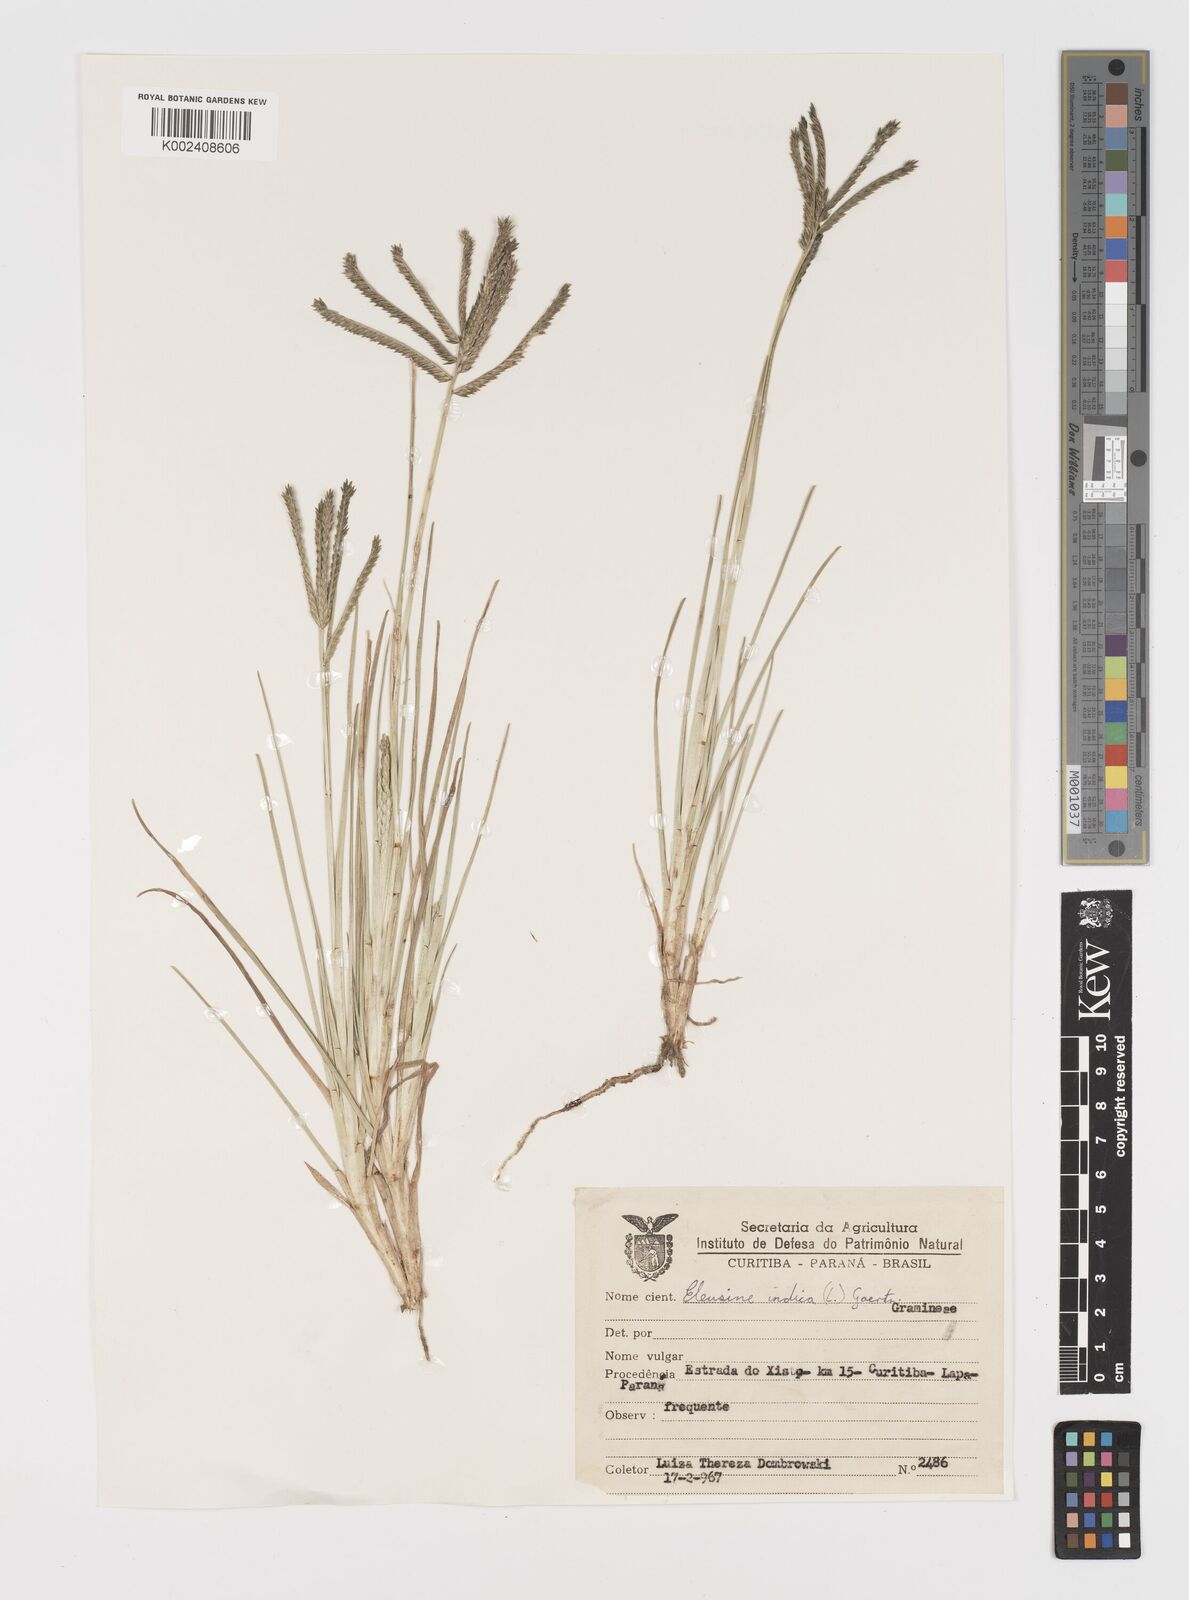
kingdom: Plantae
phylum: Tracheophyta
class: Liliopsida
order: Poales
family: Poaceae
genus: Eleusine
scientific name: Eleusine indica
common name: Yard-grass
